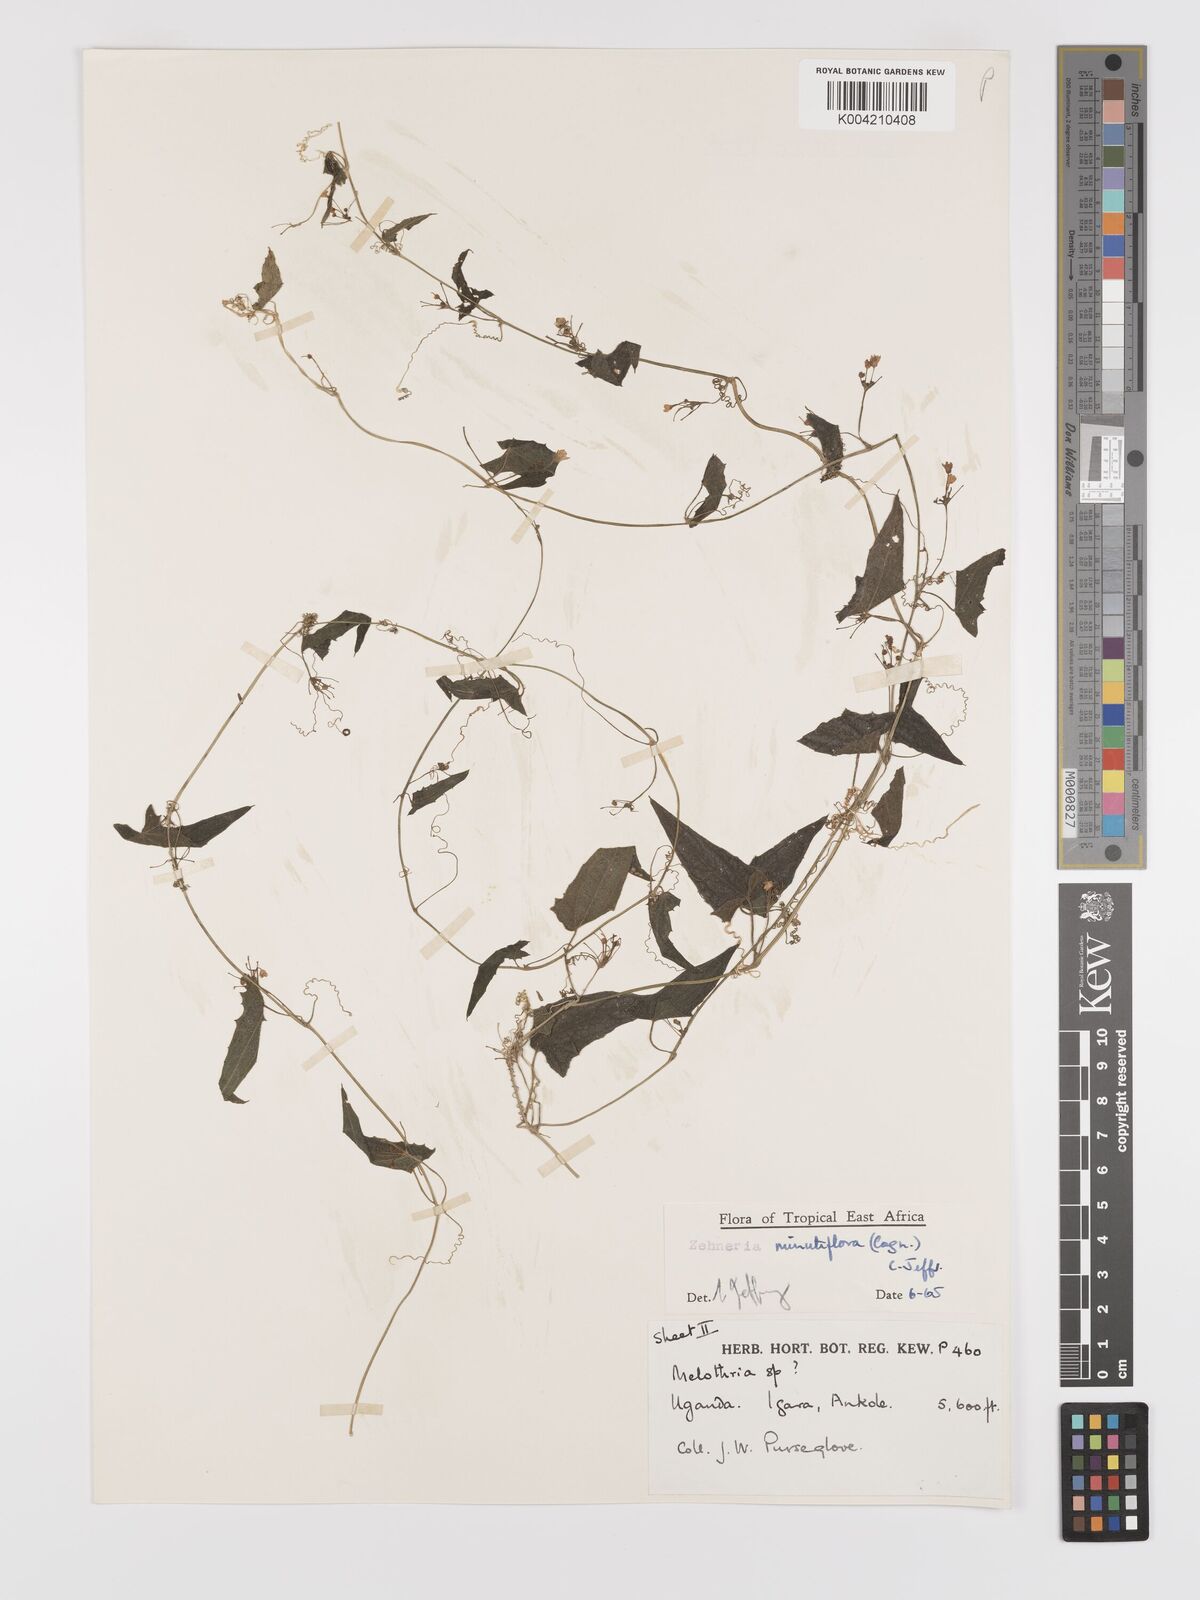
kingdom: Plantae
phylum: Tracheophyta
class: Magnoliopsida
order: Cucurbitales
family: Cucurbitaceae
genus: Zehneria
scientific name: Zehneria minutiflora
